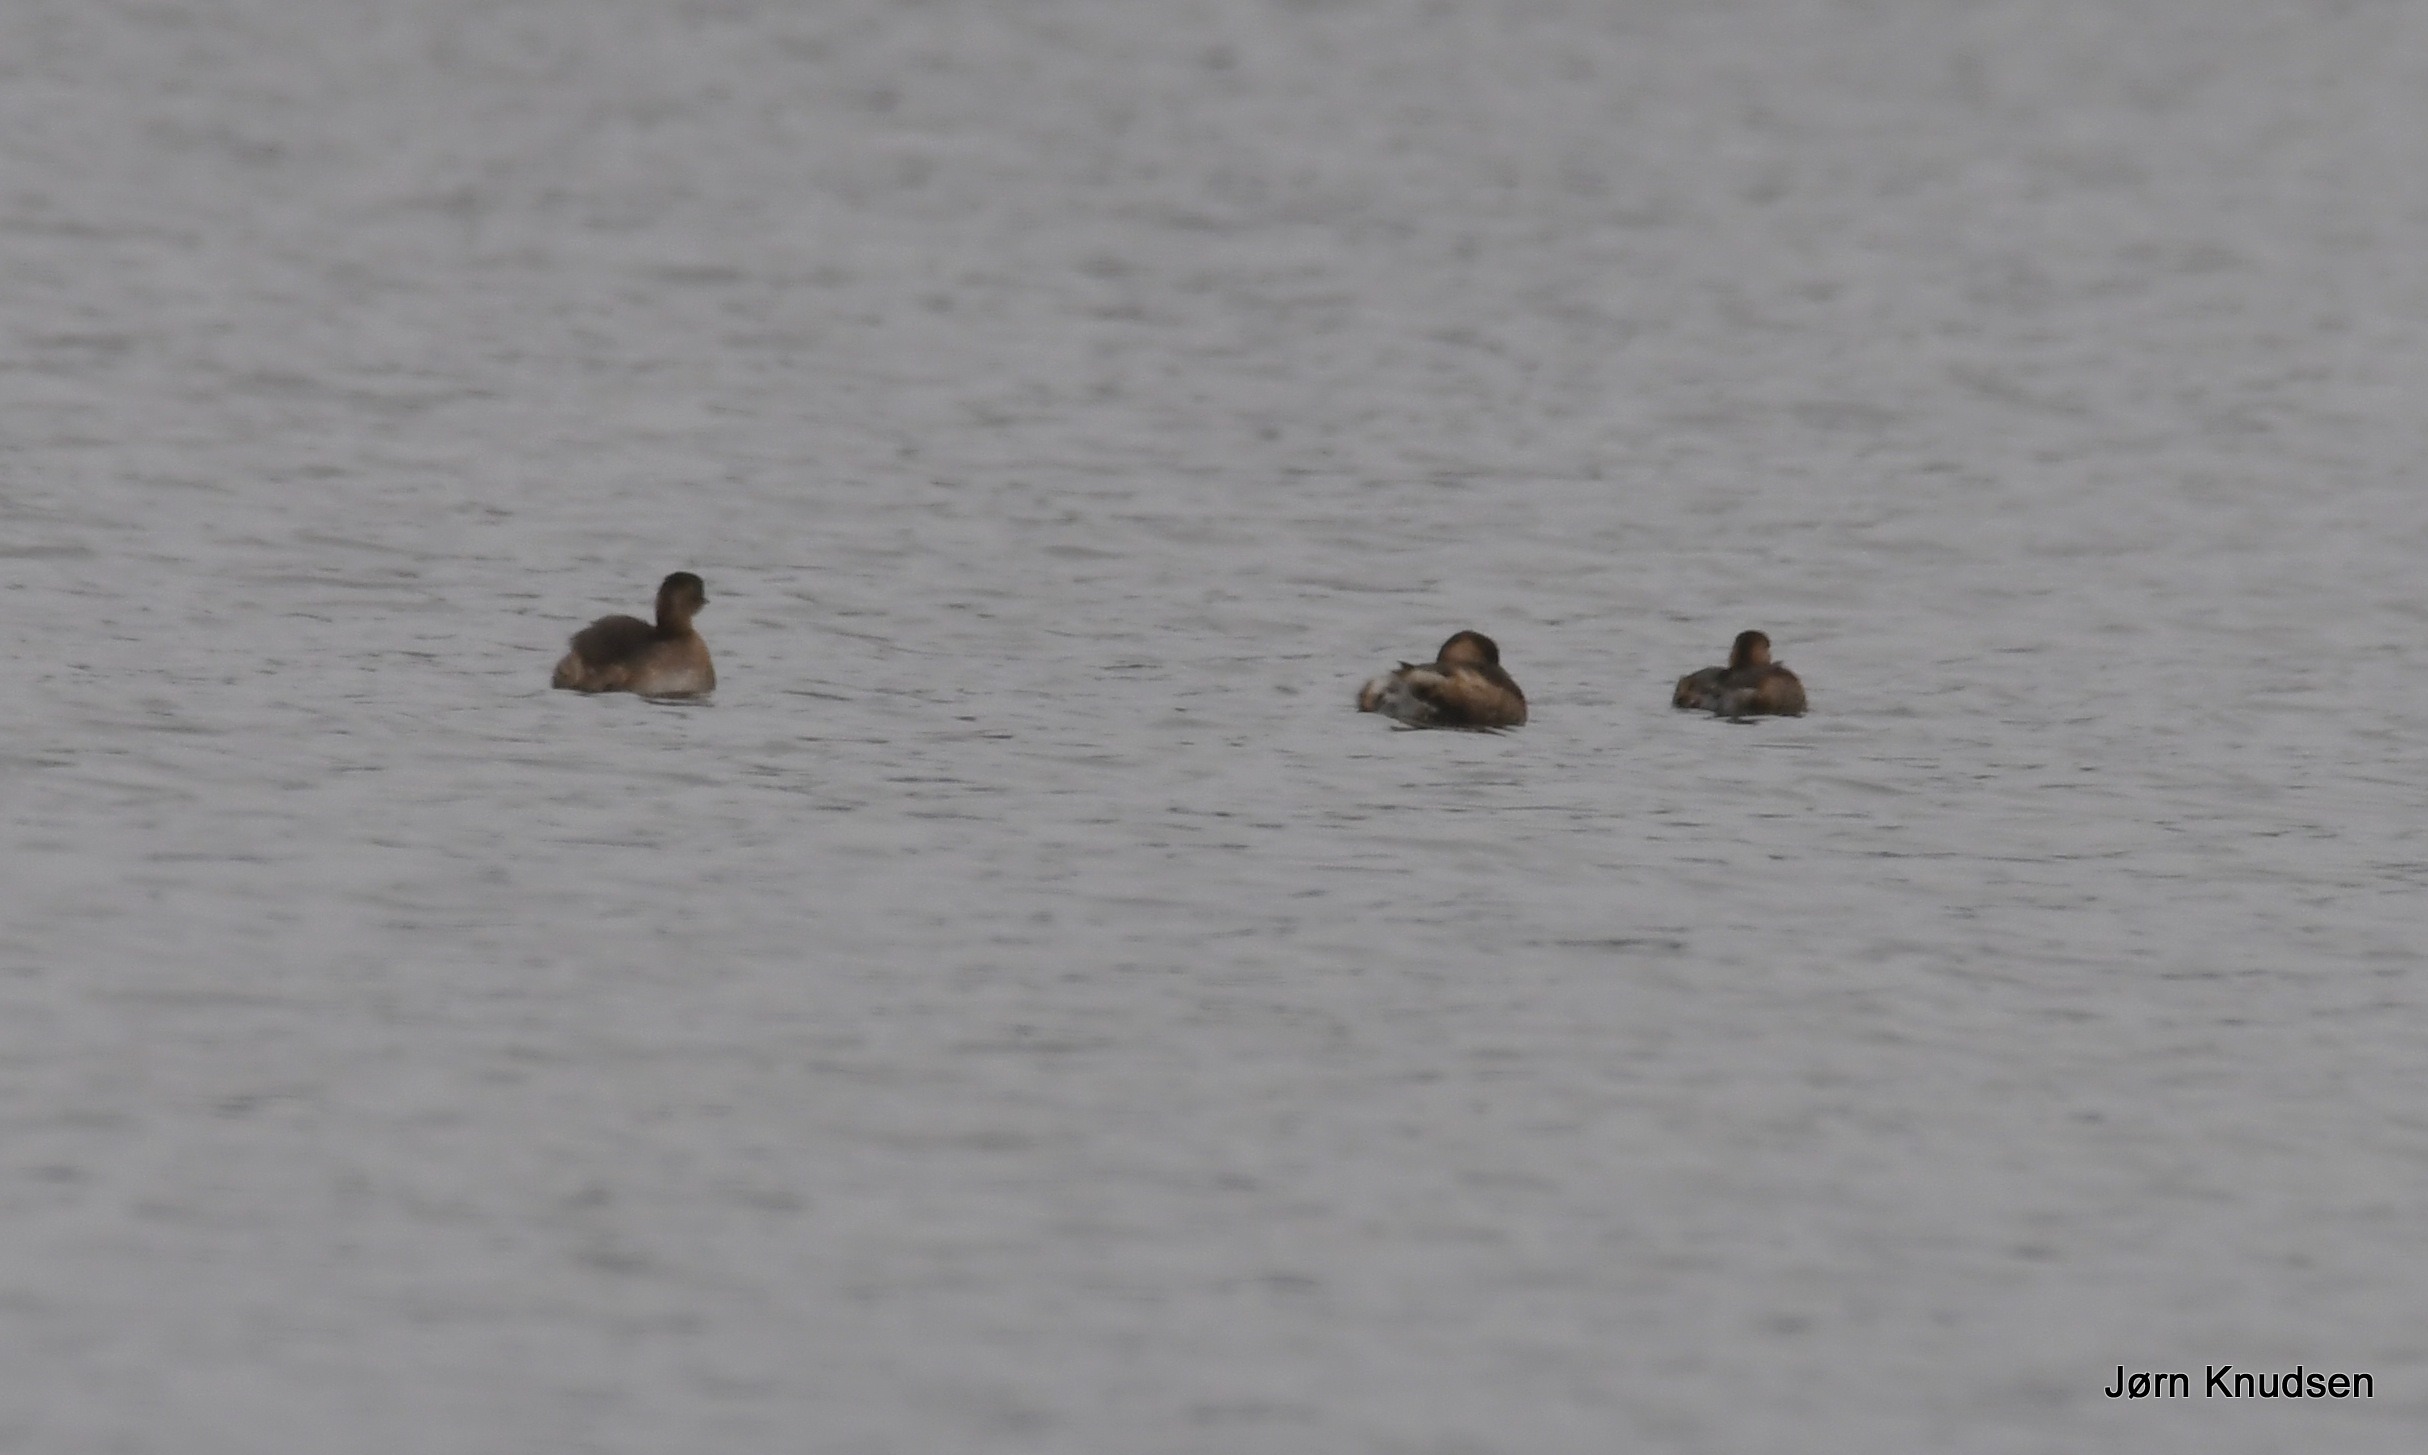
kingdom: Animalia
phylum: Chordata
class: Aves
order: Podicipediformes
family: Podicipedidae
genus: Tachybaptus
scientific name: Tachybaptus ruficollis
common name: Lille lappedykker
